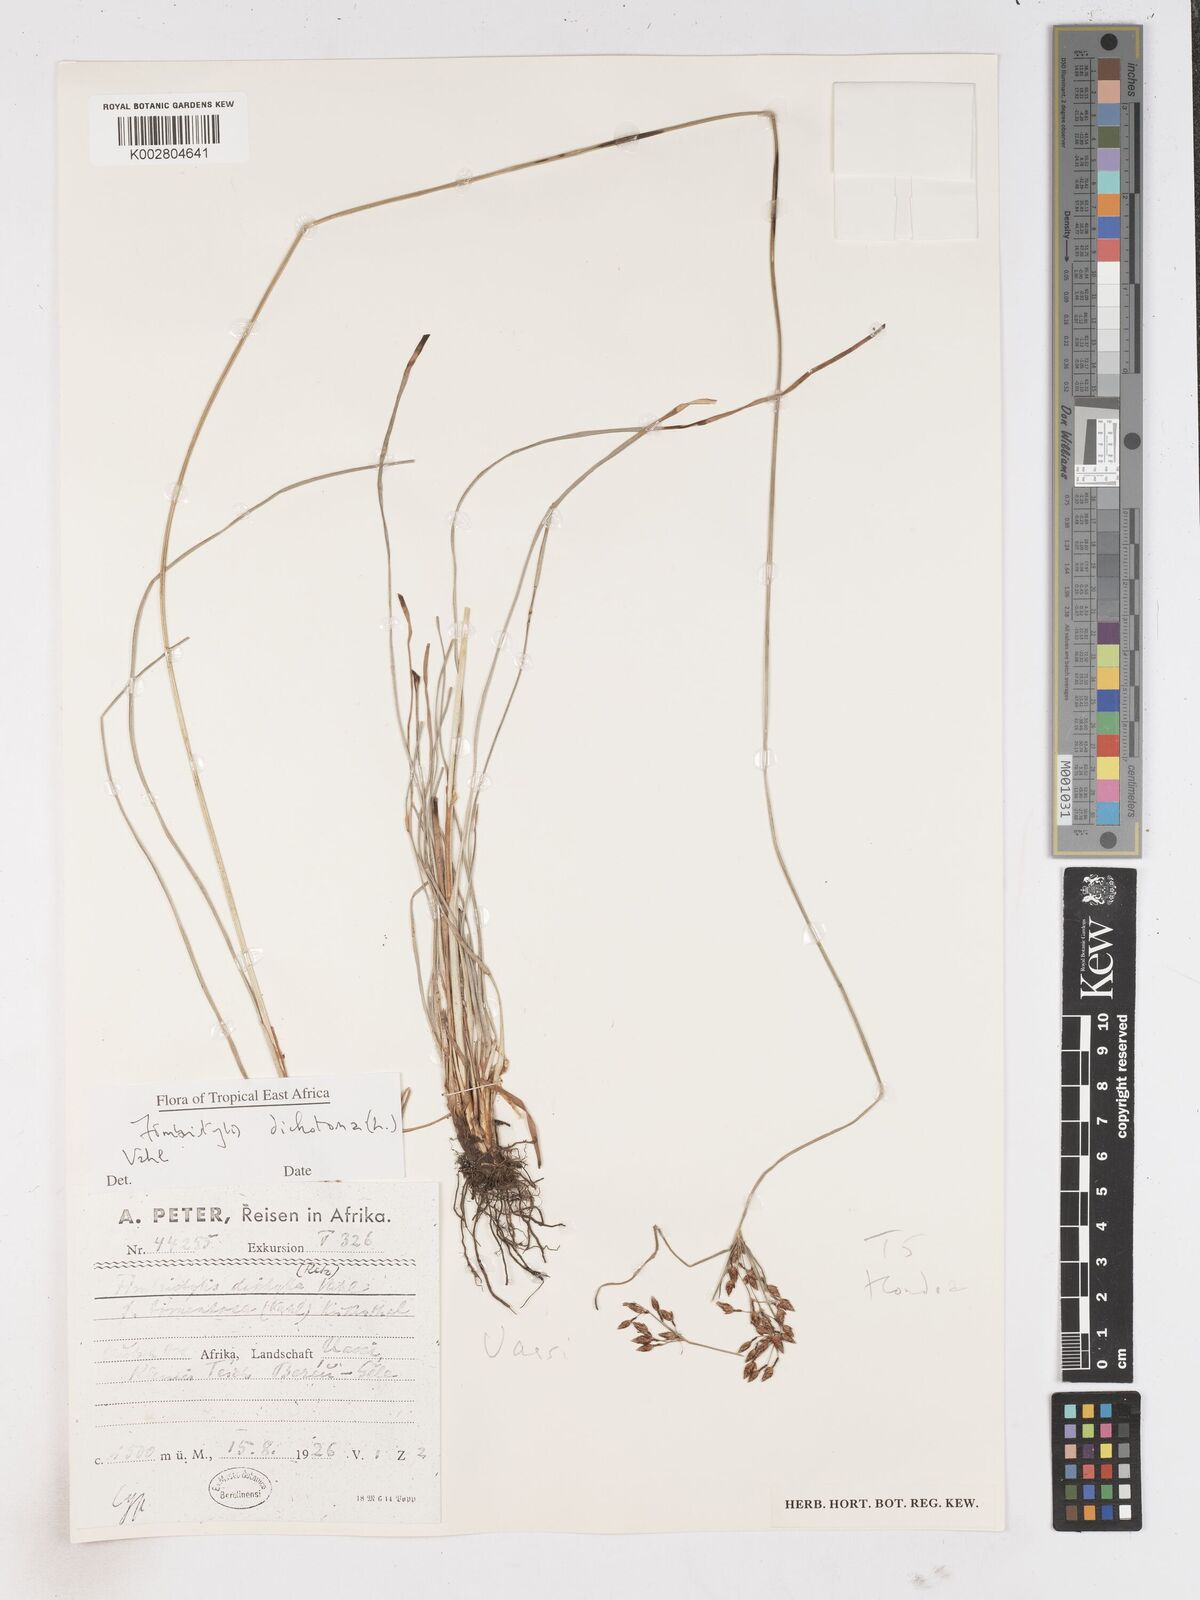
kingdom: Plantae
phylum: Tracheophyta
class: Liliopsida
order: Poales
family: Cyperaceae
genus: Fimbristylis
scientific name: Fimbristylis dichotoma
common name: Forked fimbry
